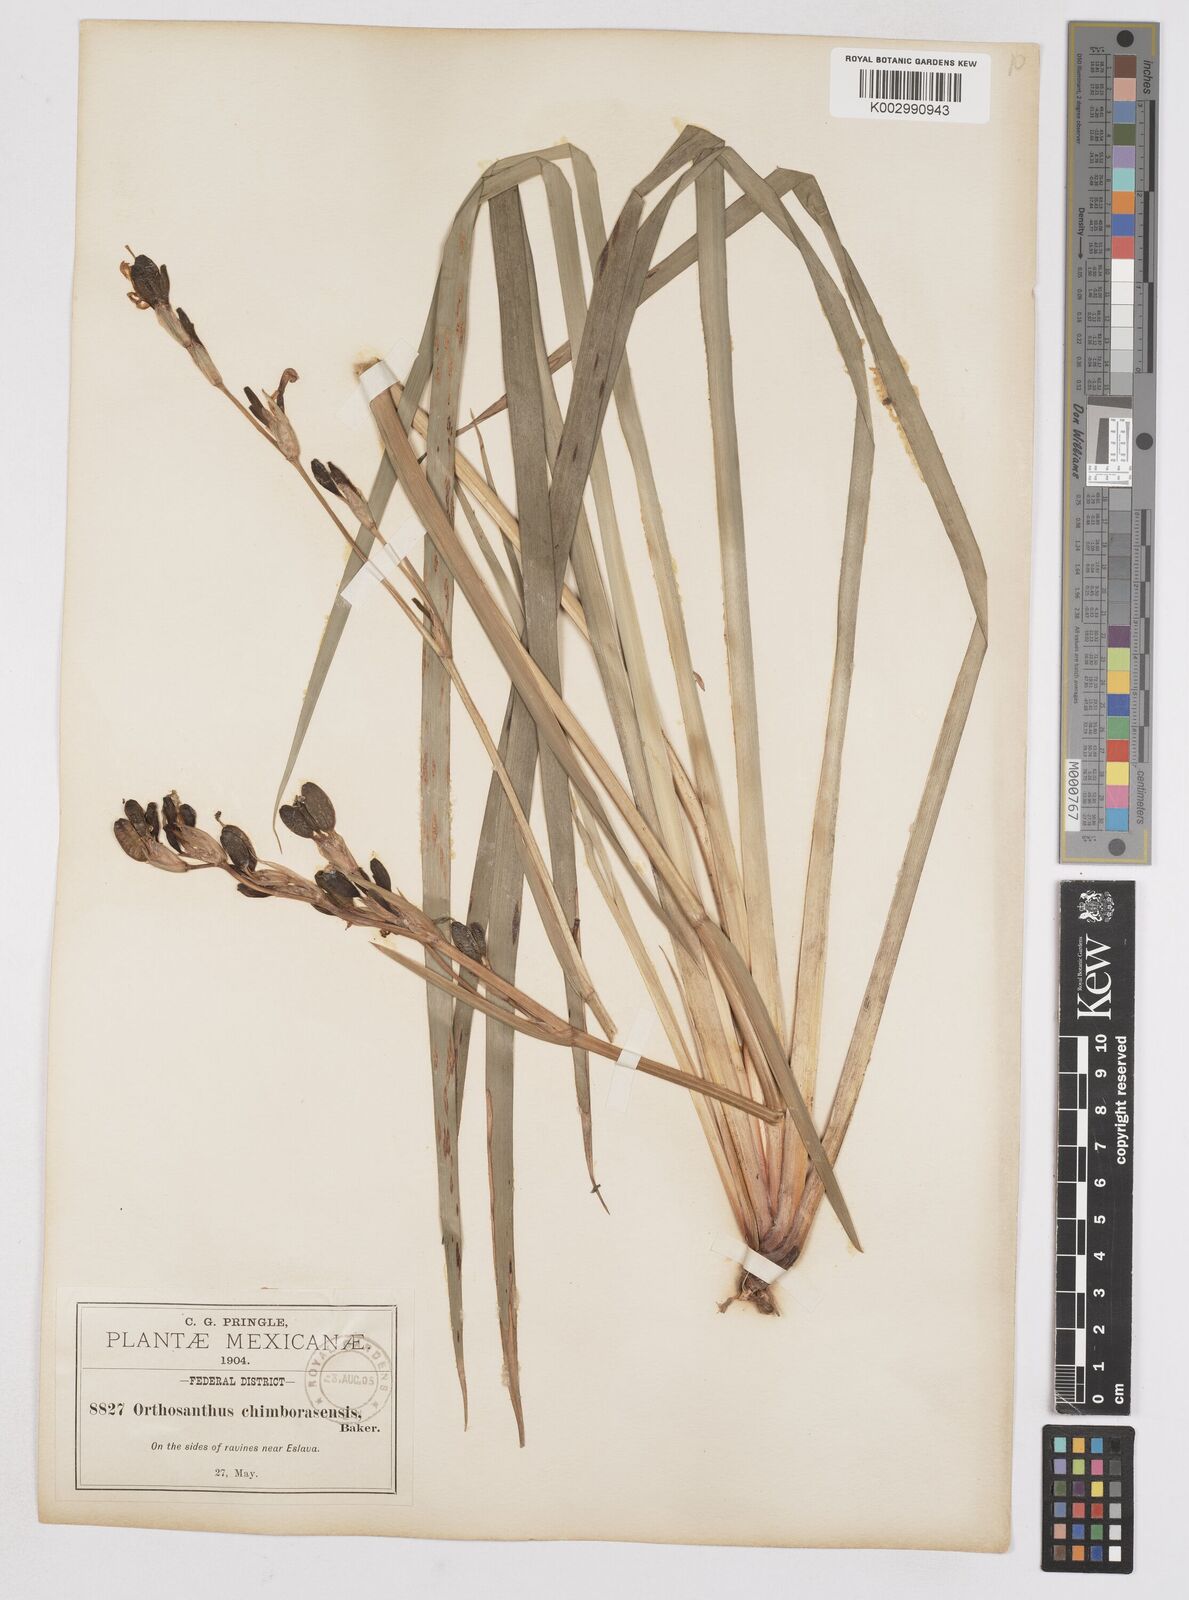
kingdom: Plantae
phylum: Tracheophyta
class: Liliopsida
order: Asparagales
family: Iridaceae
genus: Orthrosanthus
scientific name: Orthrosanthus chimboracensis
